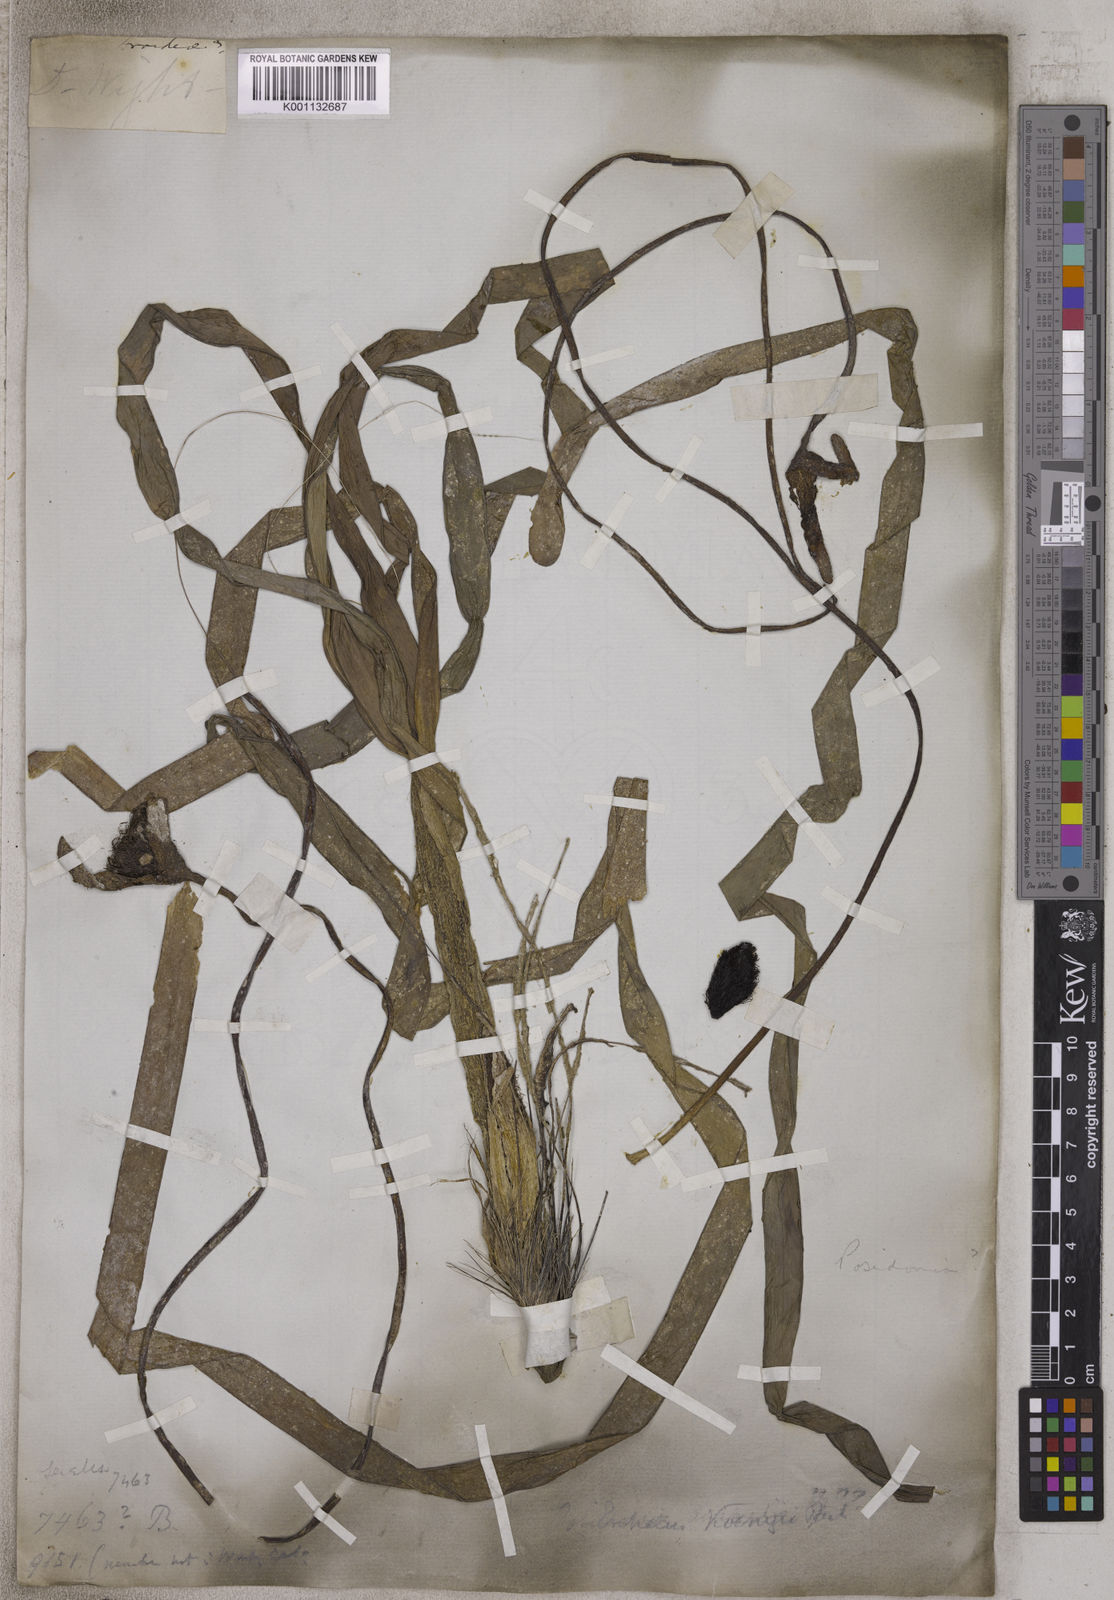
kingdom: Plantae
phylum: Tracheophyta
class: Liliopsida
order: Alismatales
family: Posidoniaceae
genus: Posidonia
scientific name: Posidonia
